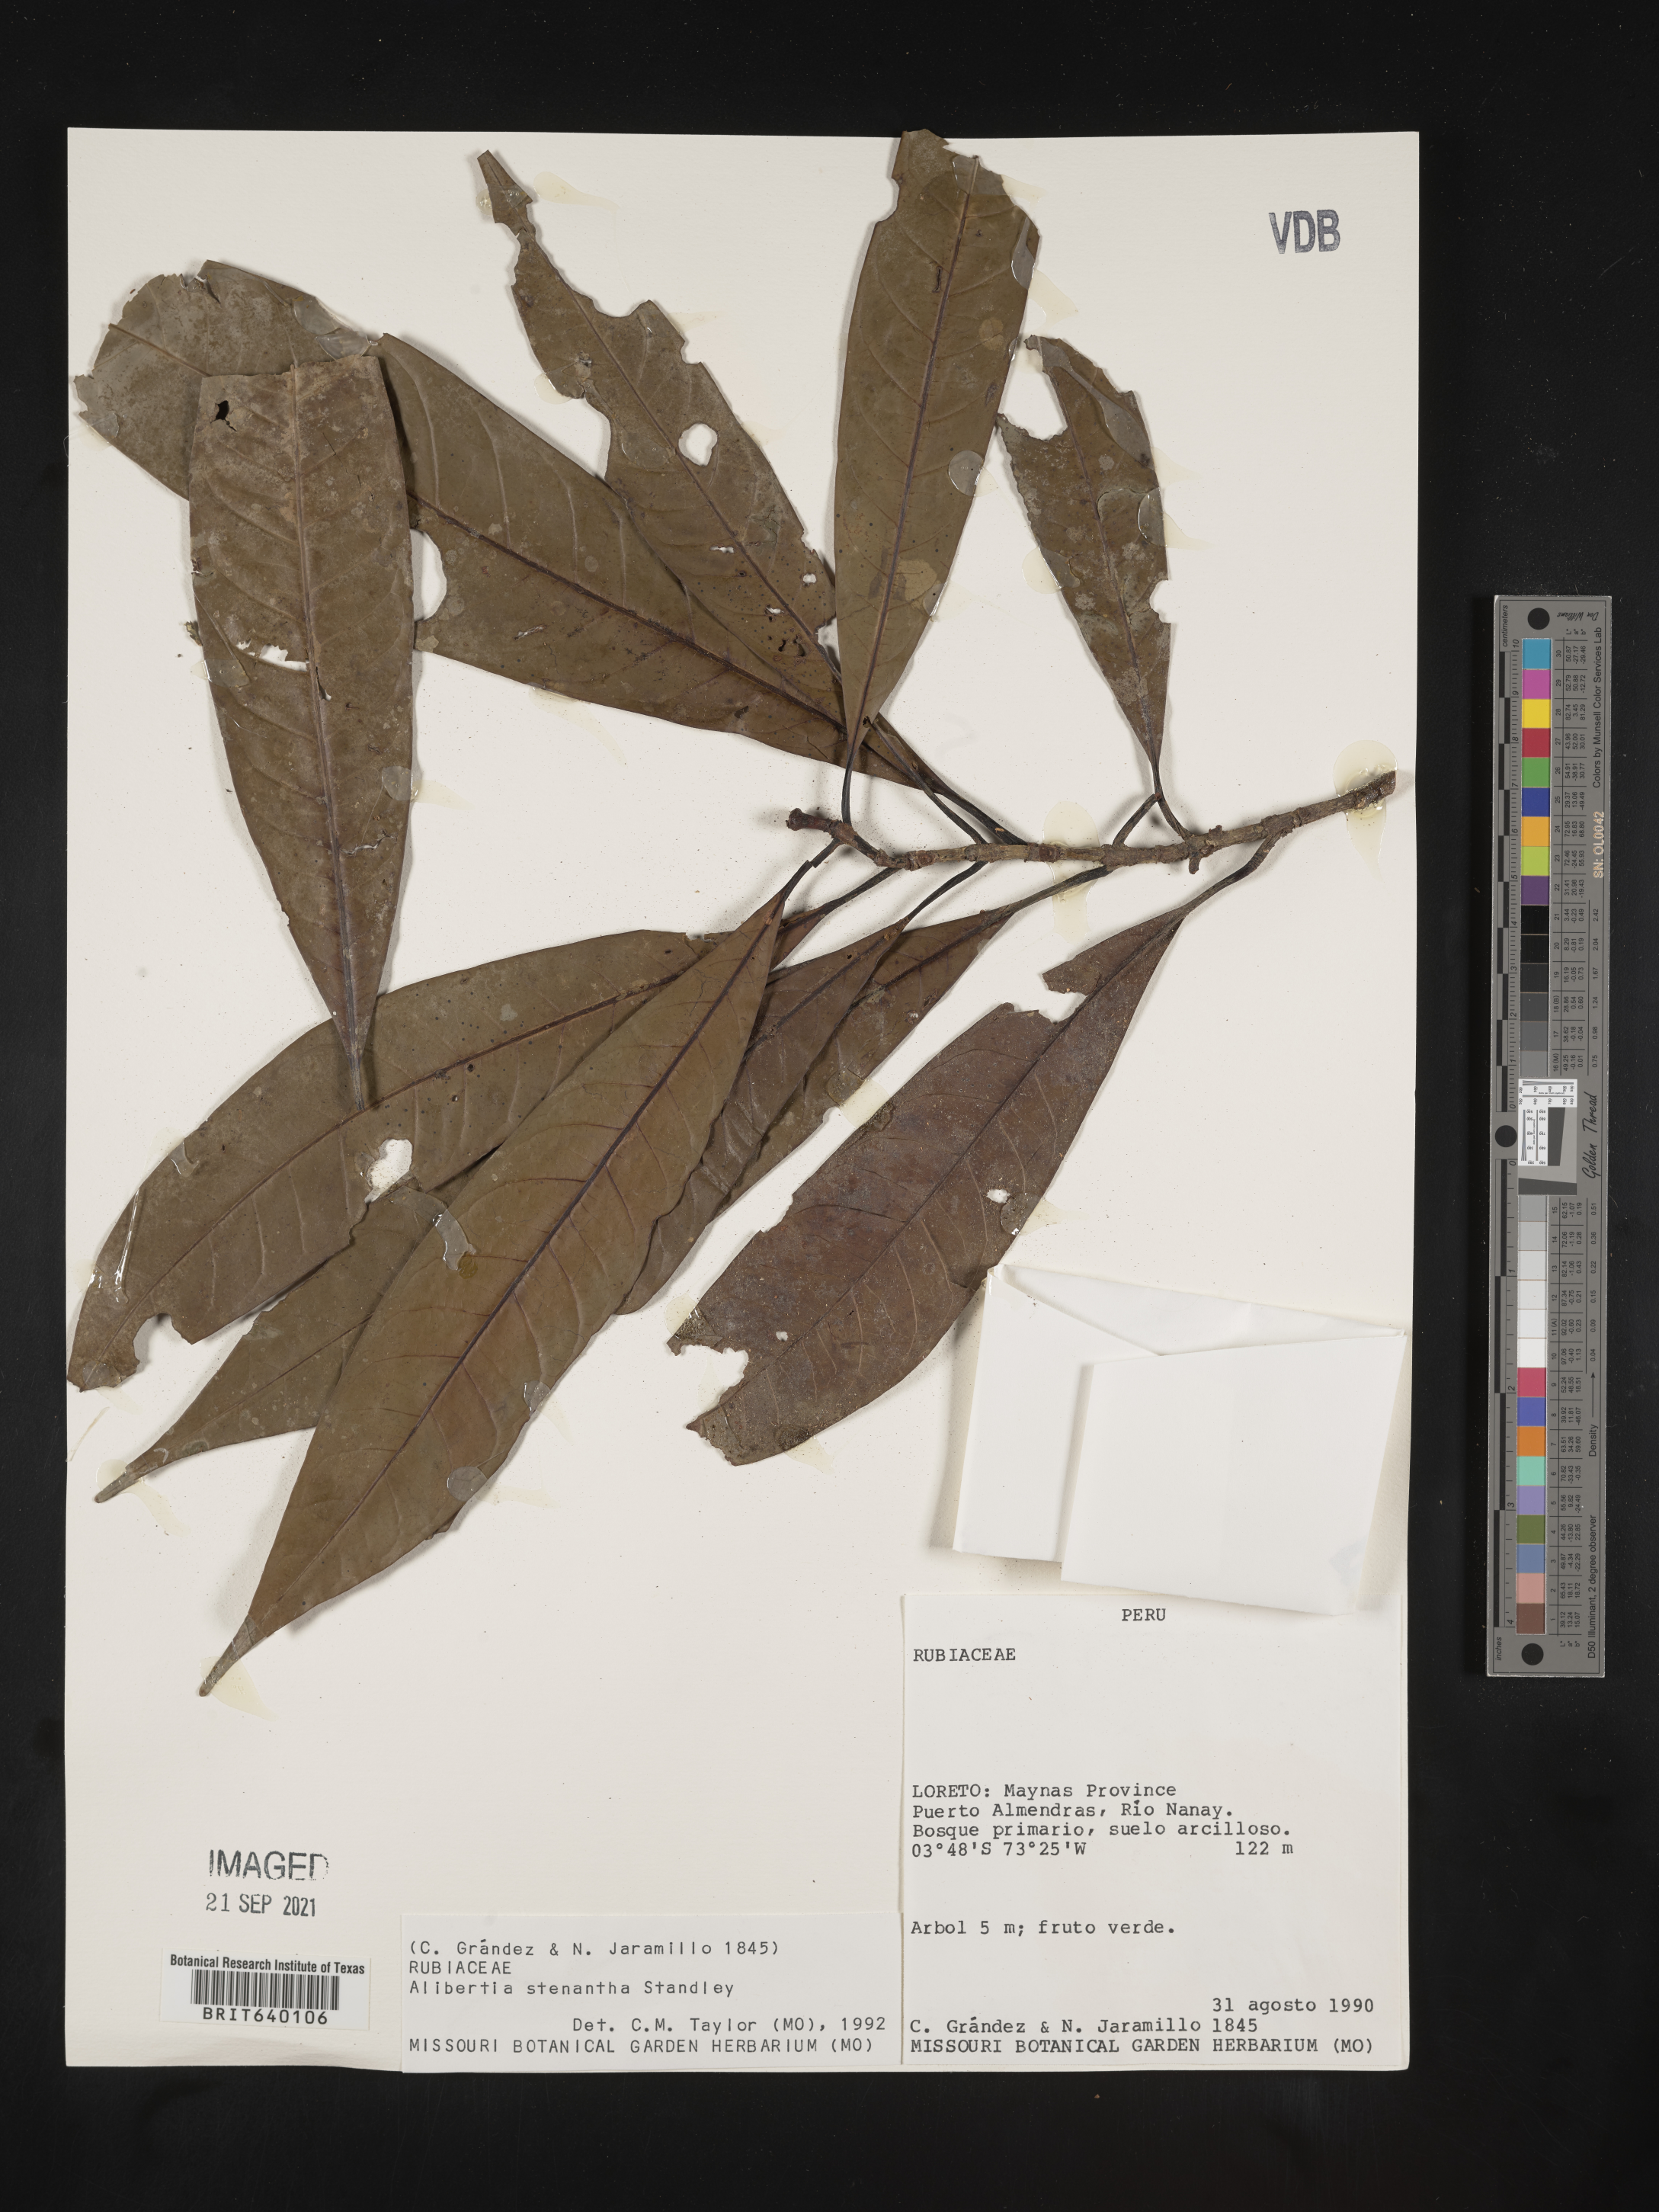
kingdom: Plantae
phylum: Tracheophyta
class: Magnoliopsida
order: Gentianales
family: Rubiaceae
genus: Alibertia
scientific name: Alibertia
